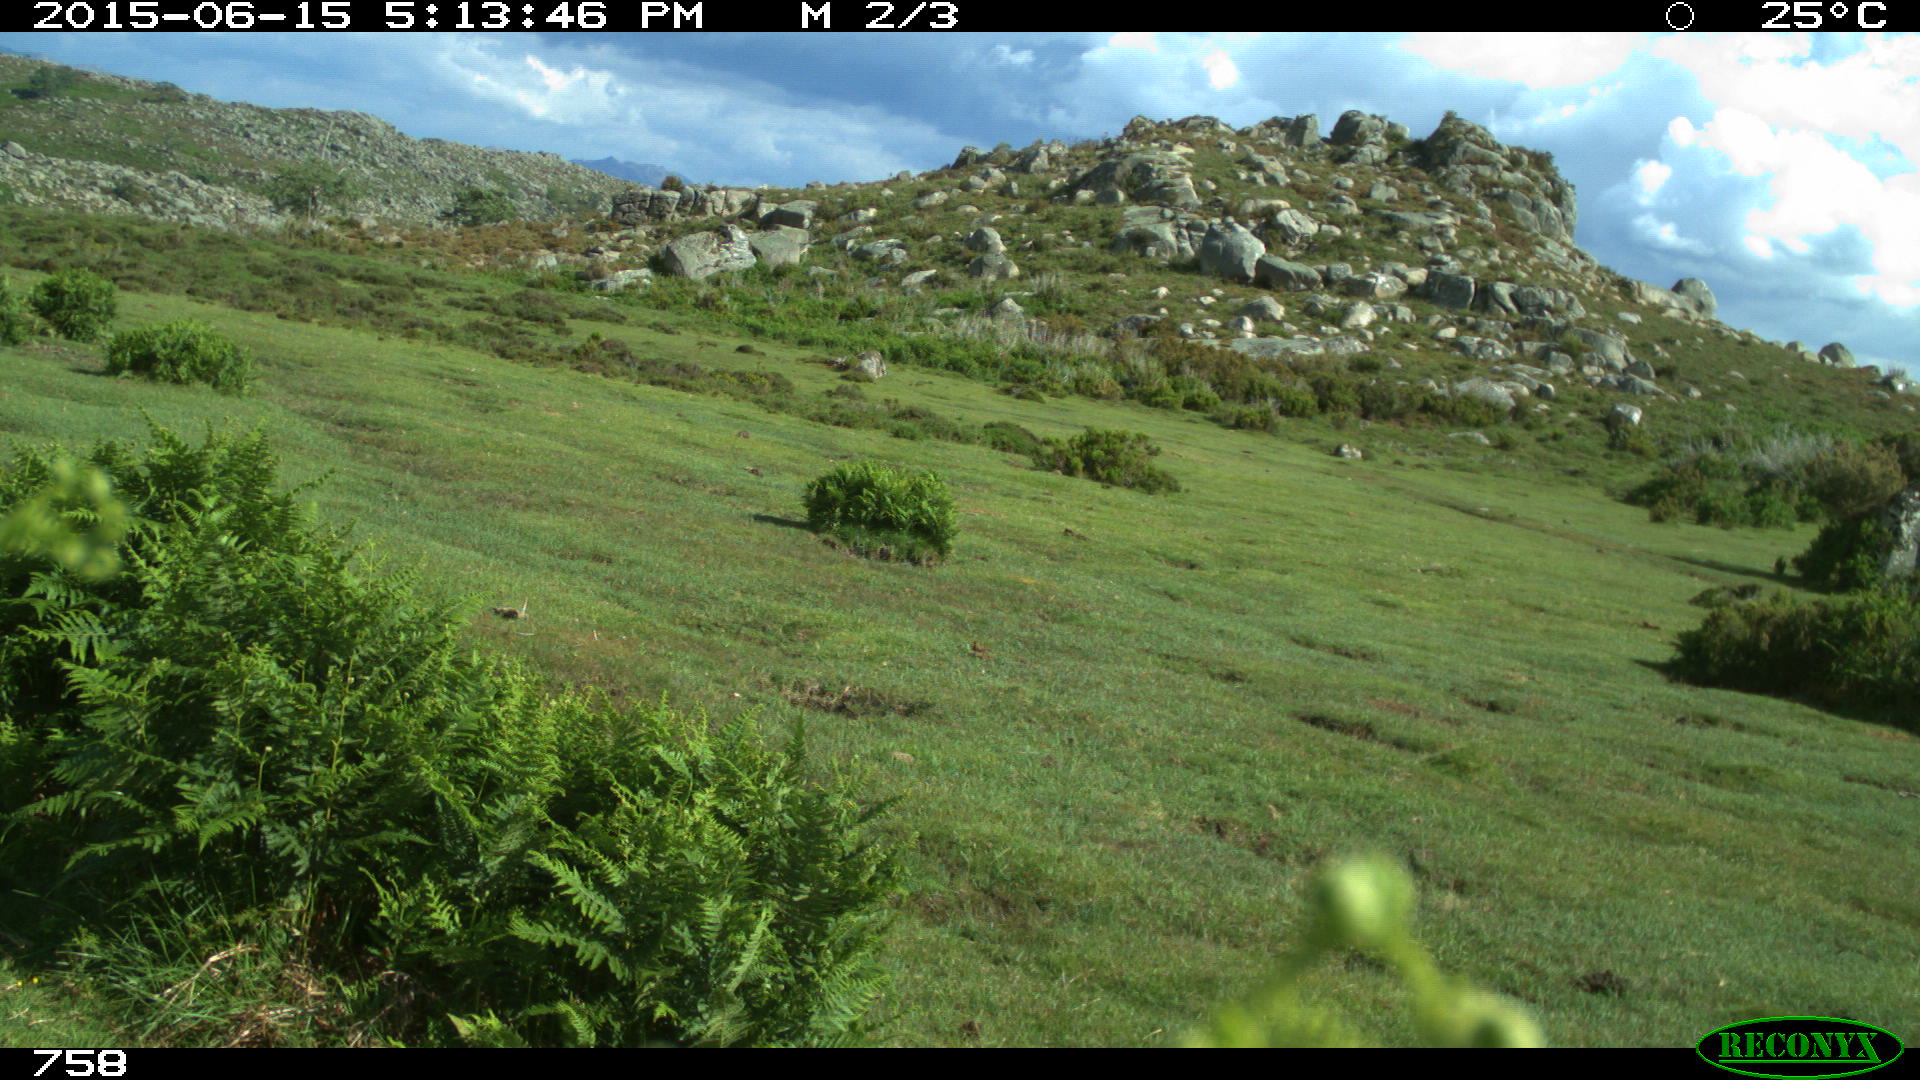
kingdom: Animalia
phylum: Chordata
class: Mammalia
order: Artiodactyla
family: Bovidae
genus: Bos
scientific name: Bos taurus
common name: Domesticated cattle
